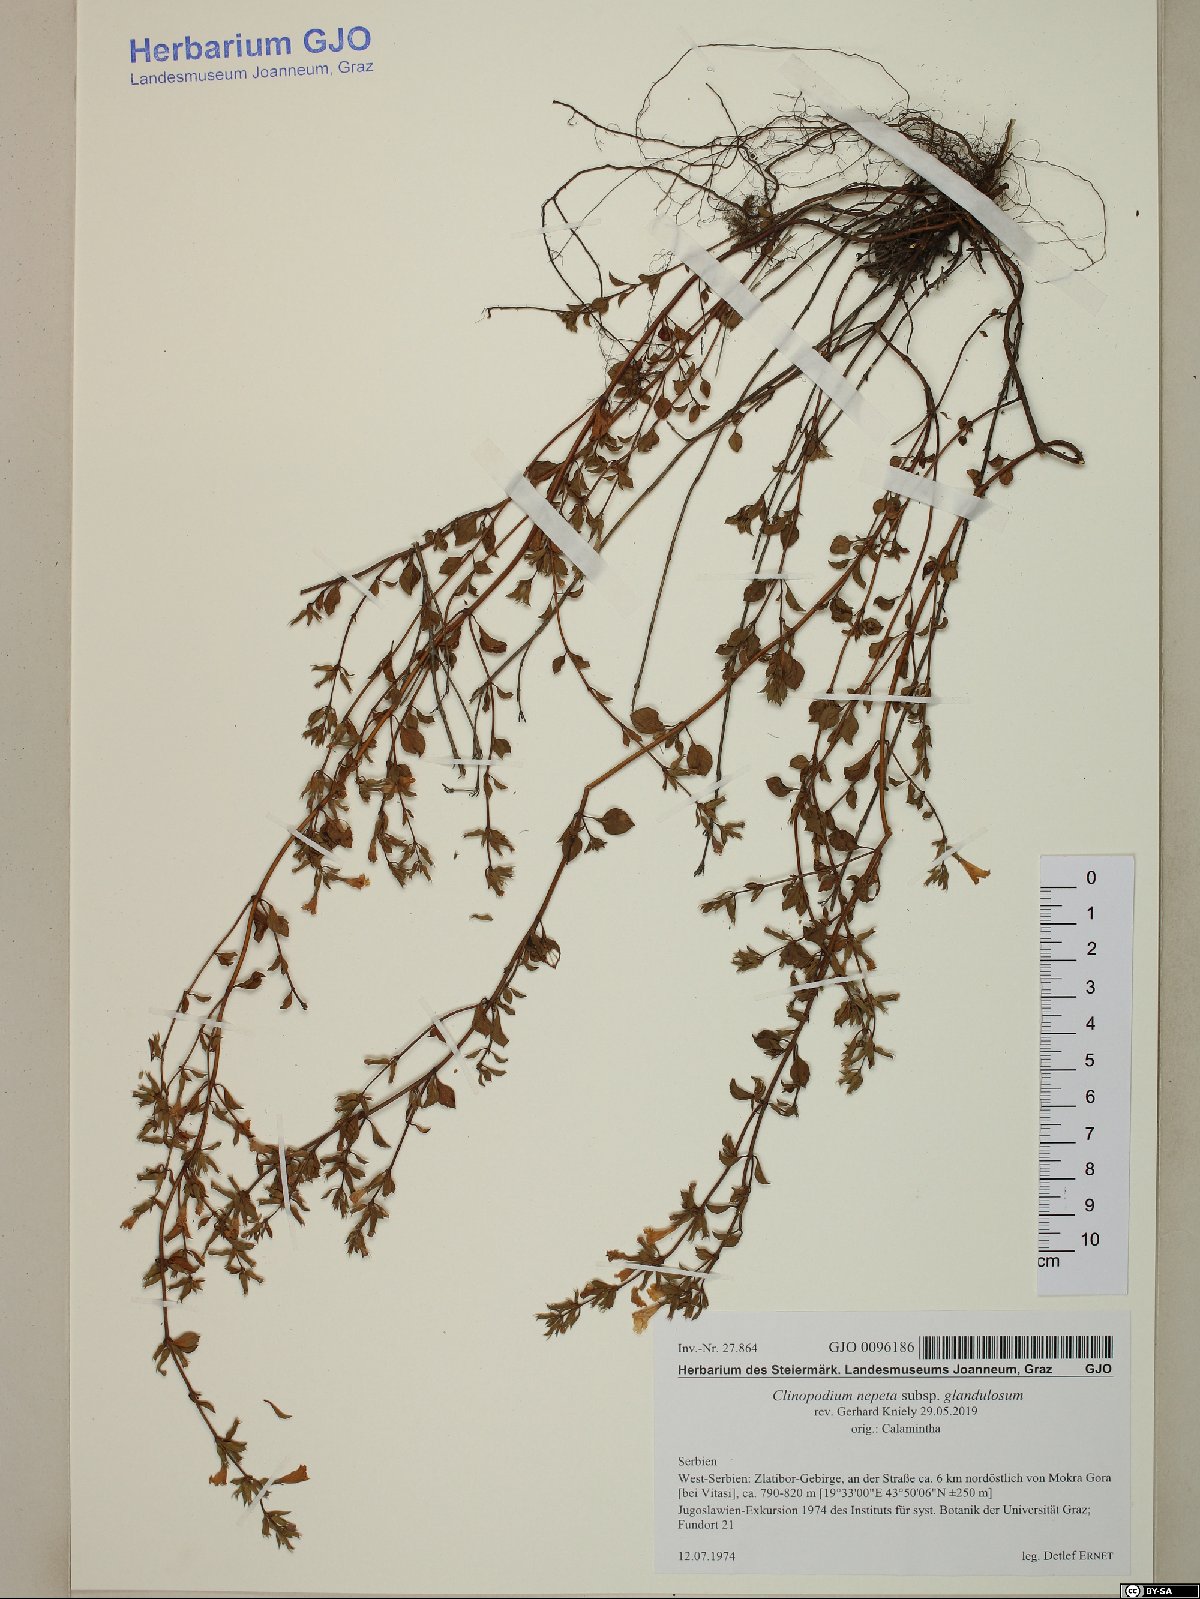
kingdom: Plantae
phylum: Tracheophyta
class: Magnoliopsida
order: Lamiales
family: Lamiaceae
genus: Clinopodium
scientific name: Clinopodium nepeta
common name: Lesser calamint
